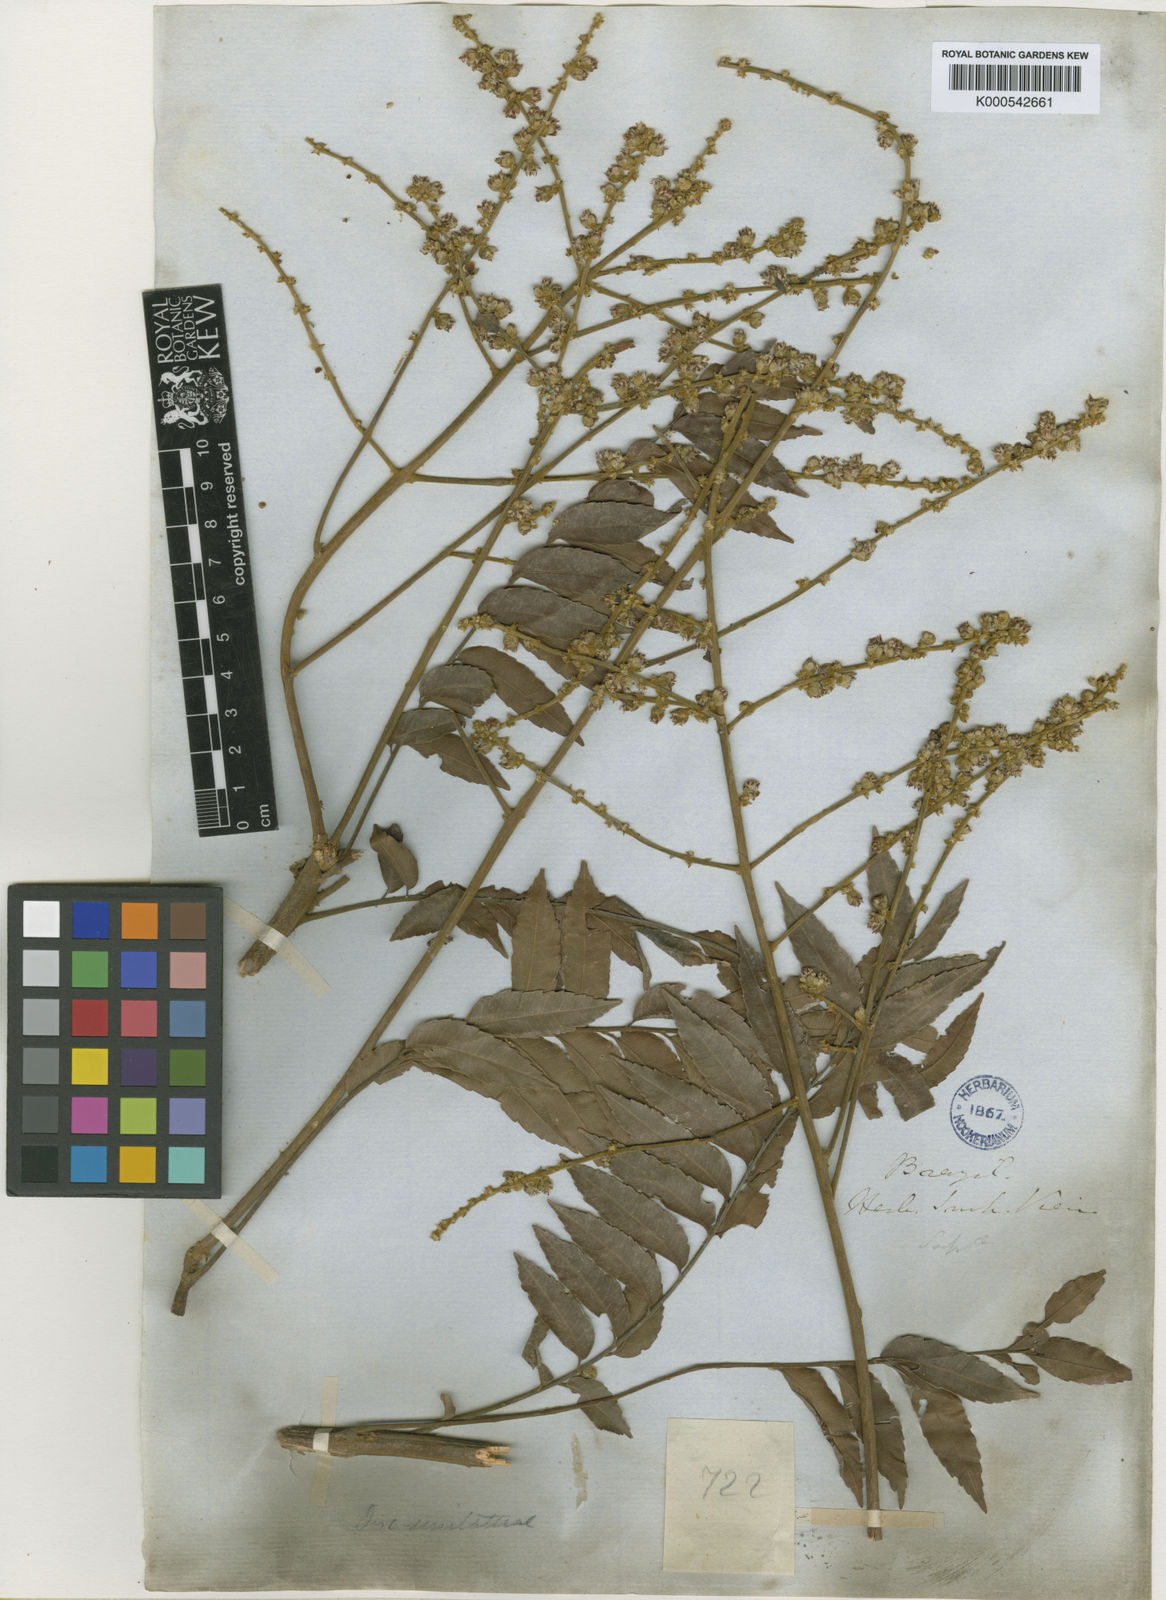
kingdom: Plantae
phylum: Tracheophyta
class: Magnoliopsida
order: Sapindales
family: Sapindaceae
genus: Toulicia
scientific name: Toulicia stans
